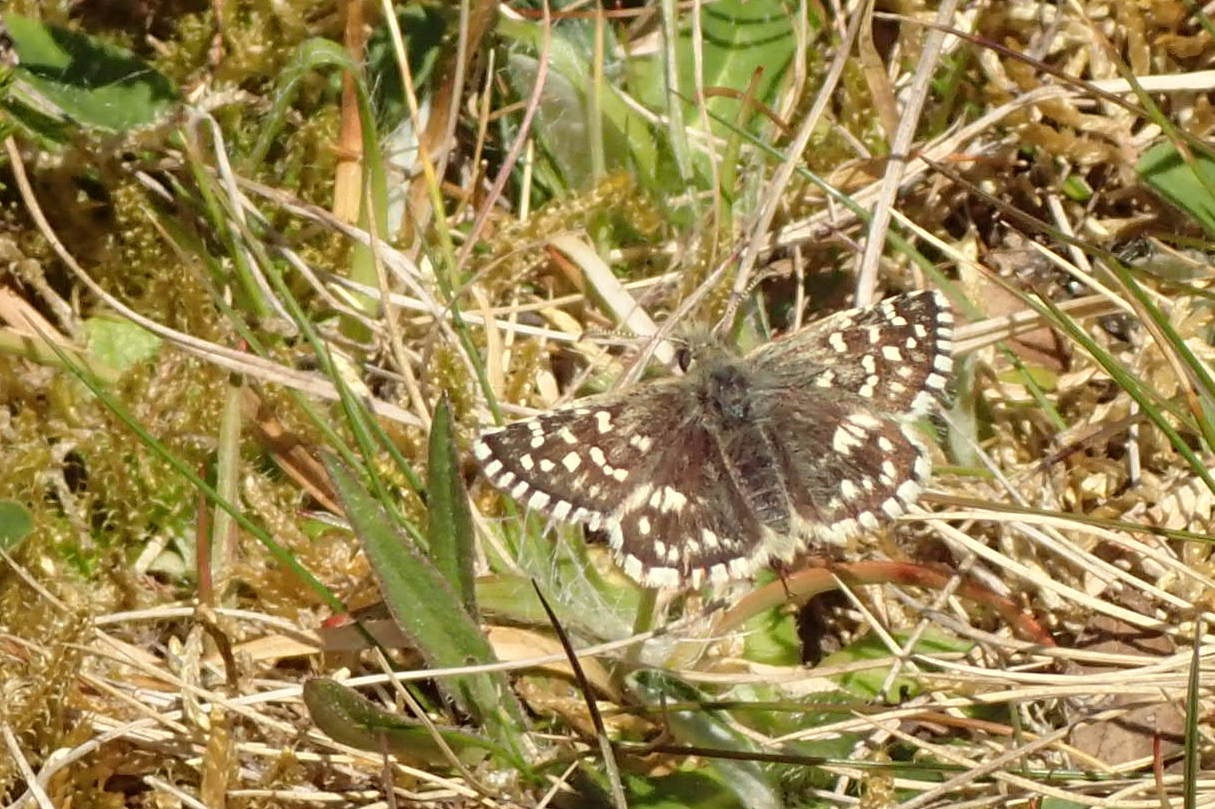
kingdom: Animalia
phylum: Arthropoda
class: Insecta
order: Lepidoptera
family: Hesperiidae
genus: Pyrgus
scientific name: Pyrgus malvae
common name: Spættet bredpande
